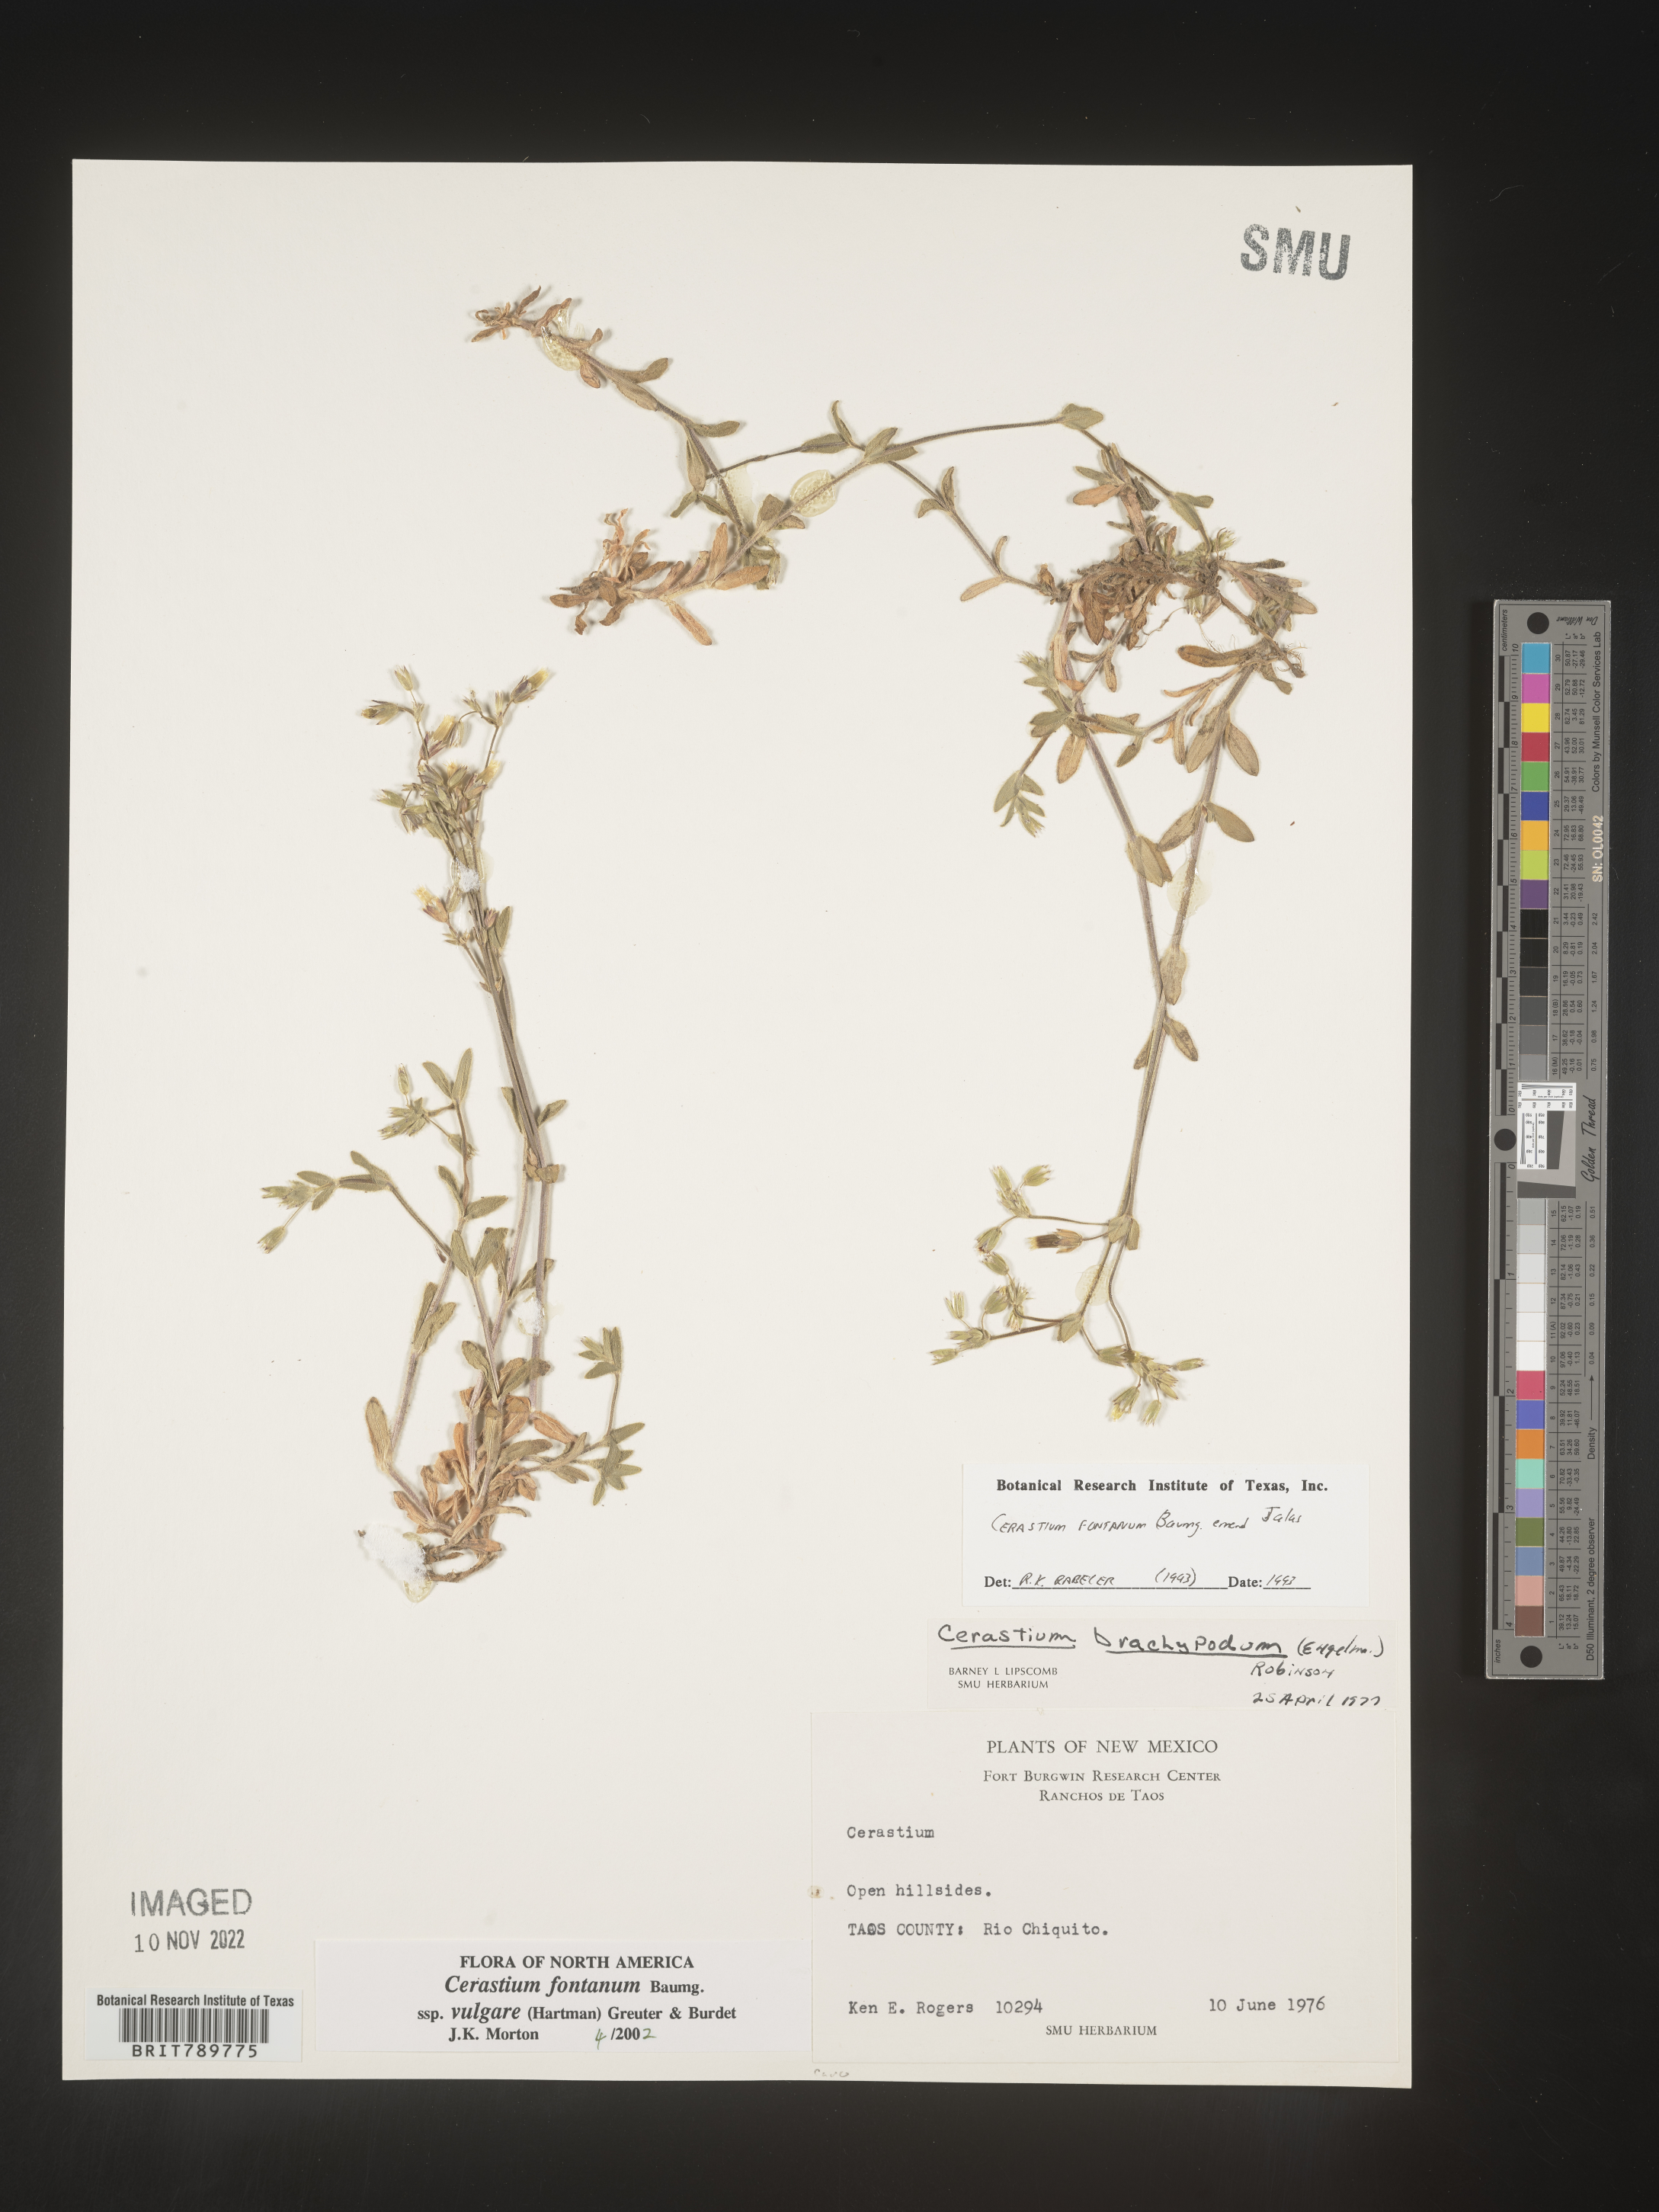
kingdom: Plantae
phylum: Tracheophyta
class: Magnoliopsida
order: Caryophyllales
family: Caryophyllaceae
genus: Cerastium
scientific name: Cerastium fontanum
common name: Common mouse-ear
